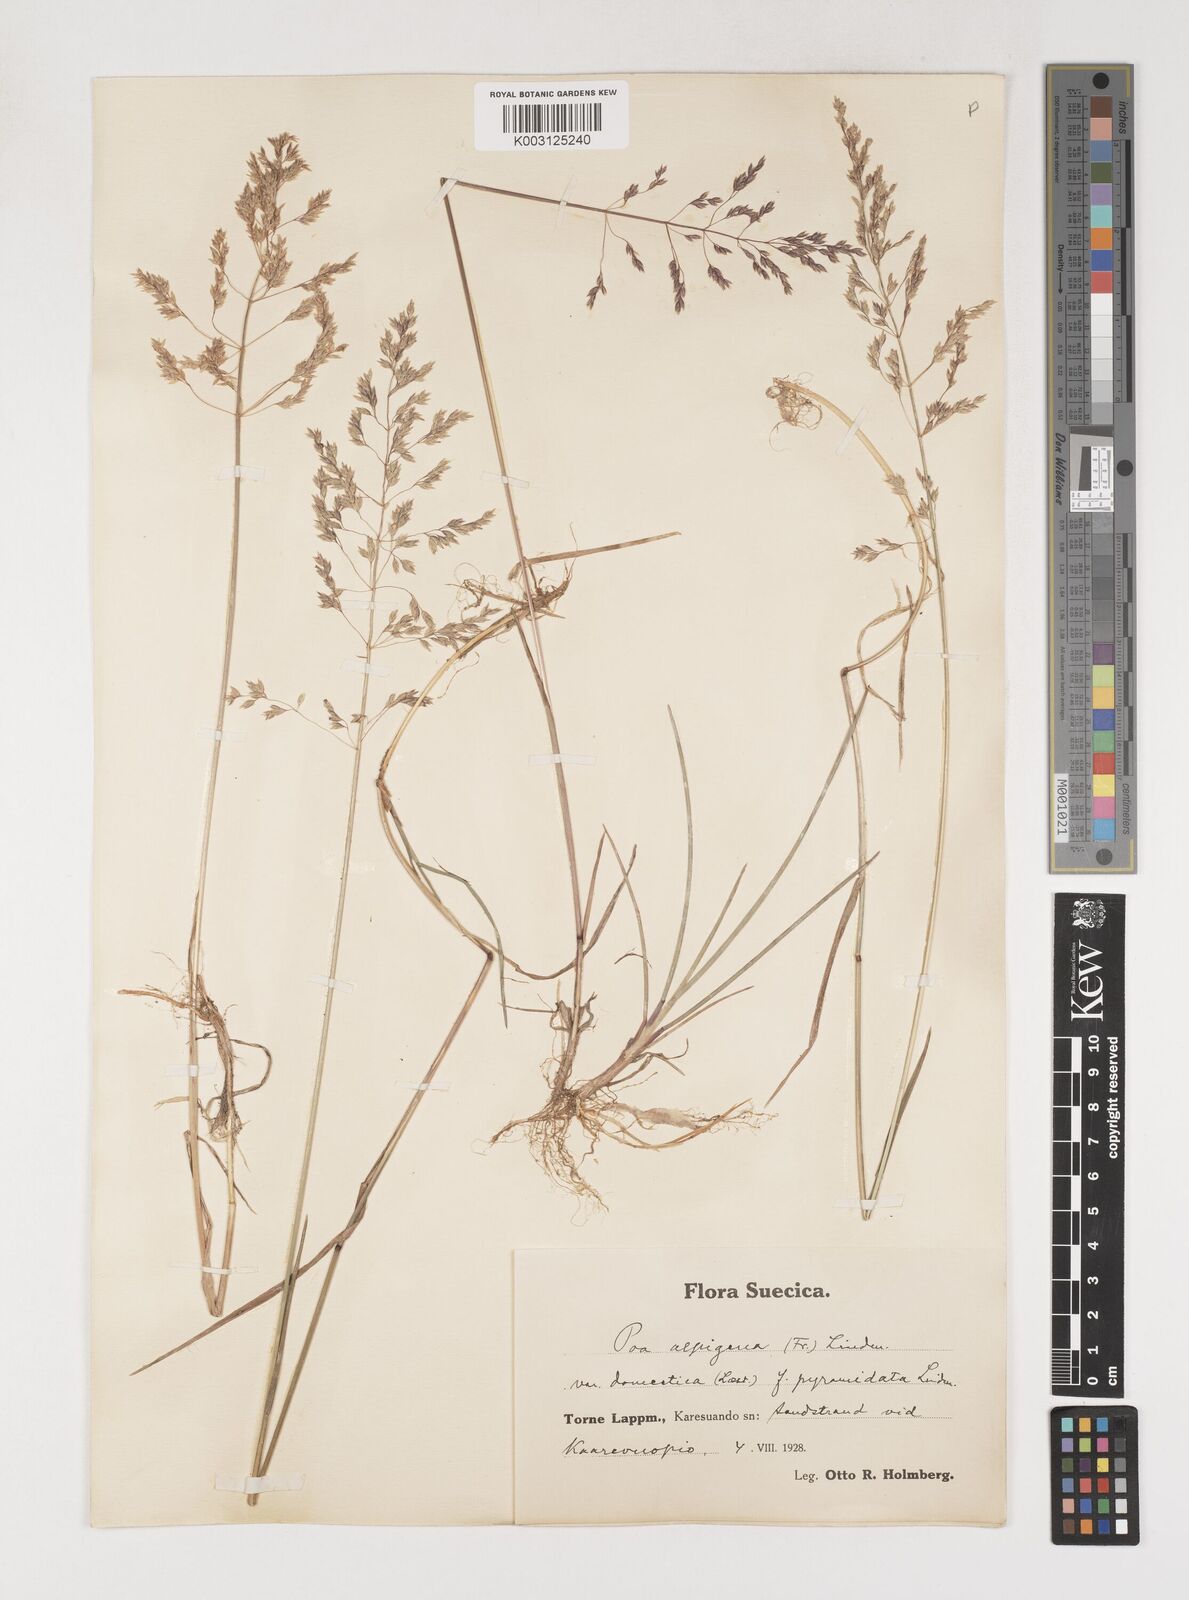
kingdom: Plantae
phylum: Tracheophyta
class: Liliopsida
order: Poales
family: Poaceae
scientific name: Poaceae
